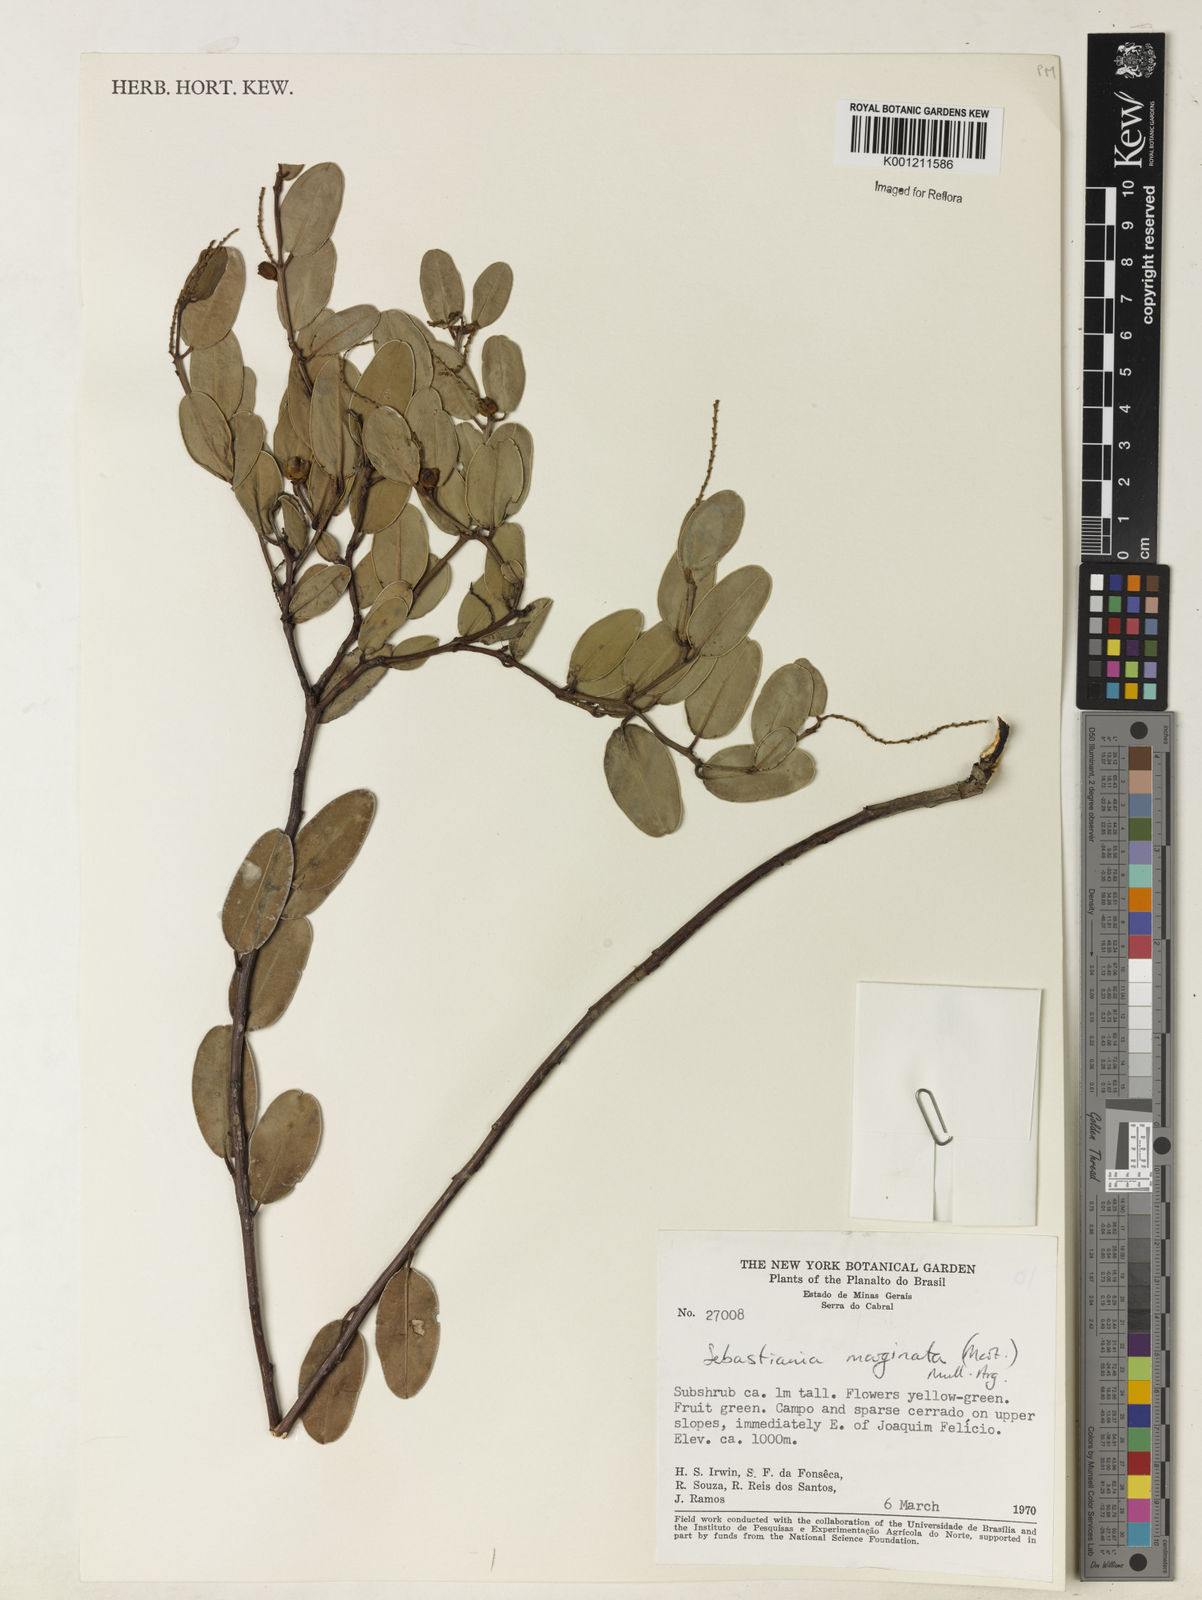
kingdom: Plantae
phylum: Tracheophyta
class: Magnoliopsida
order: Malpighiales
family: Euphorbiaceae
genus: Microstachys
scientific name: Microstachys
